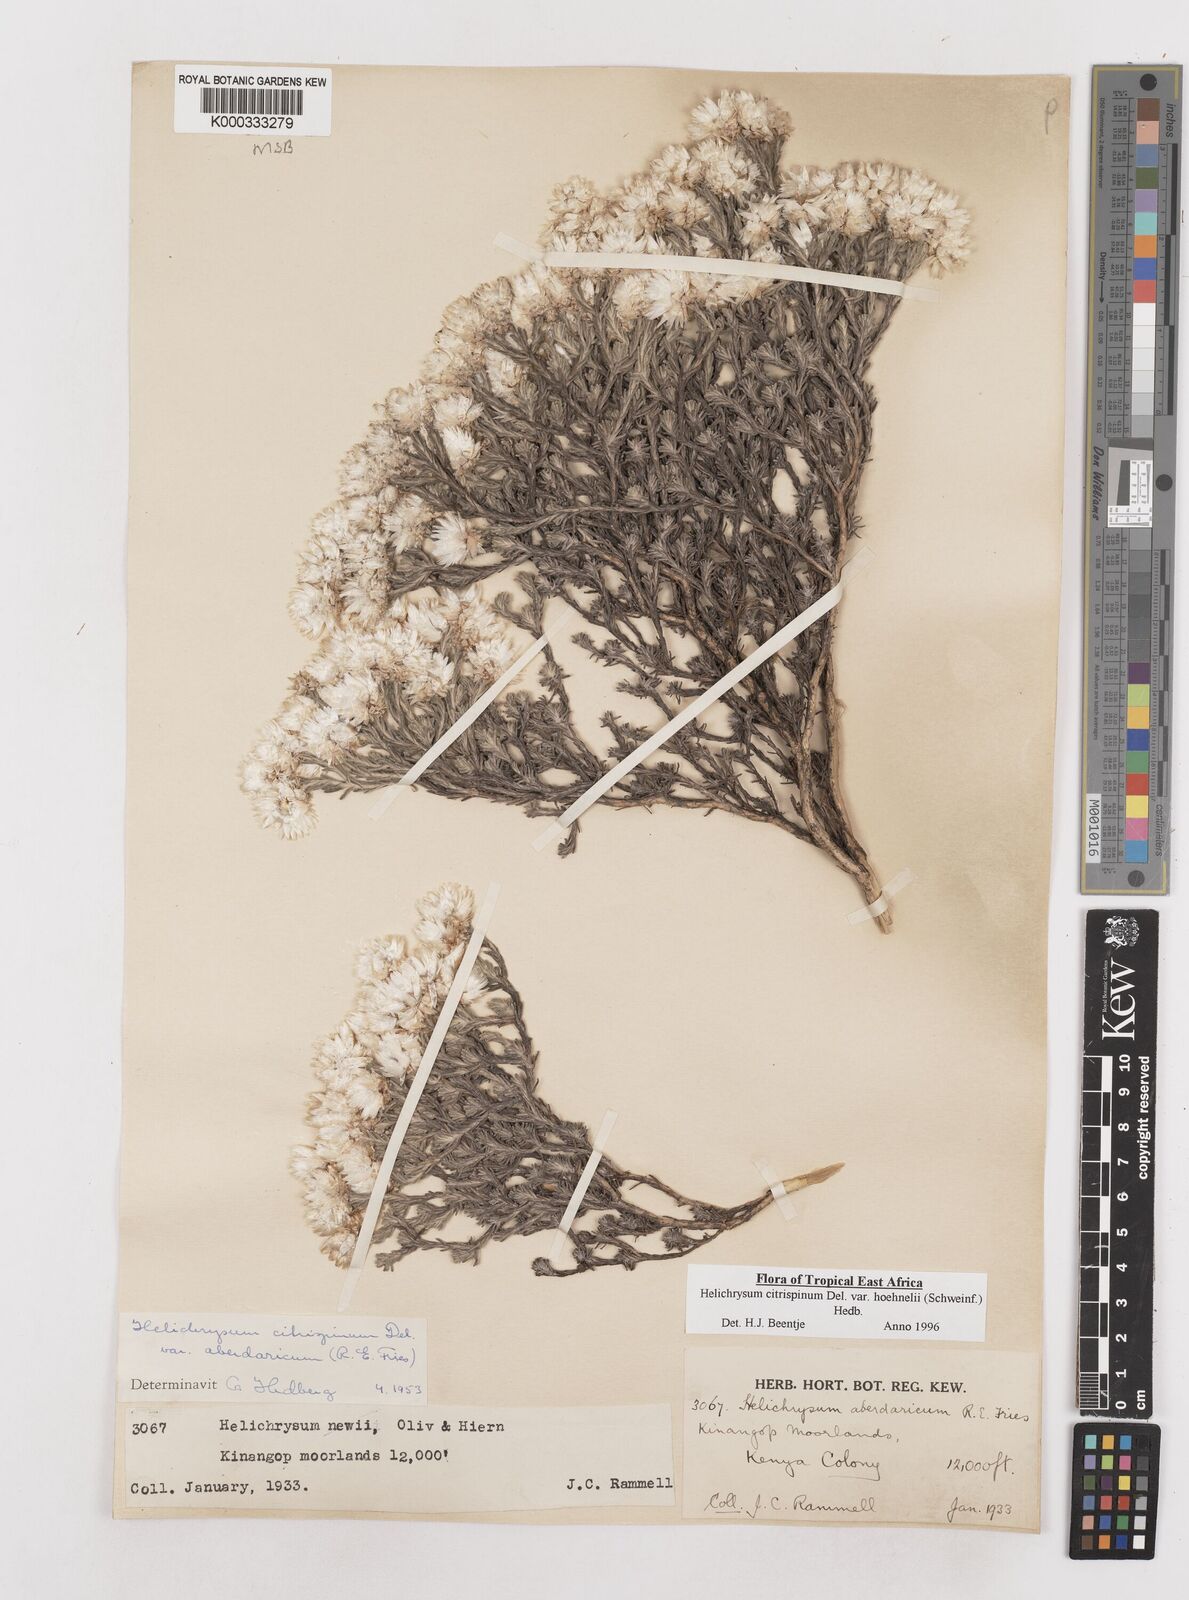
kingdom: Plantae
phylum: Tracheophyta
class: Magnoliopsida
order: Asterales
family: Asteraceae
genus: Helichrysum
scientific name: Helichrysum citrispinum
